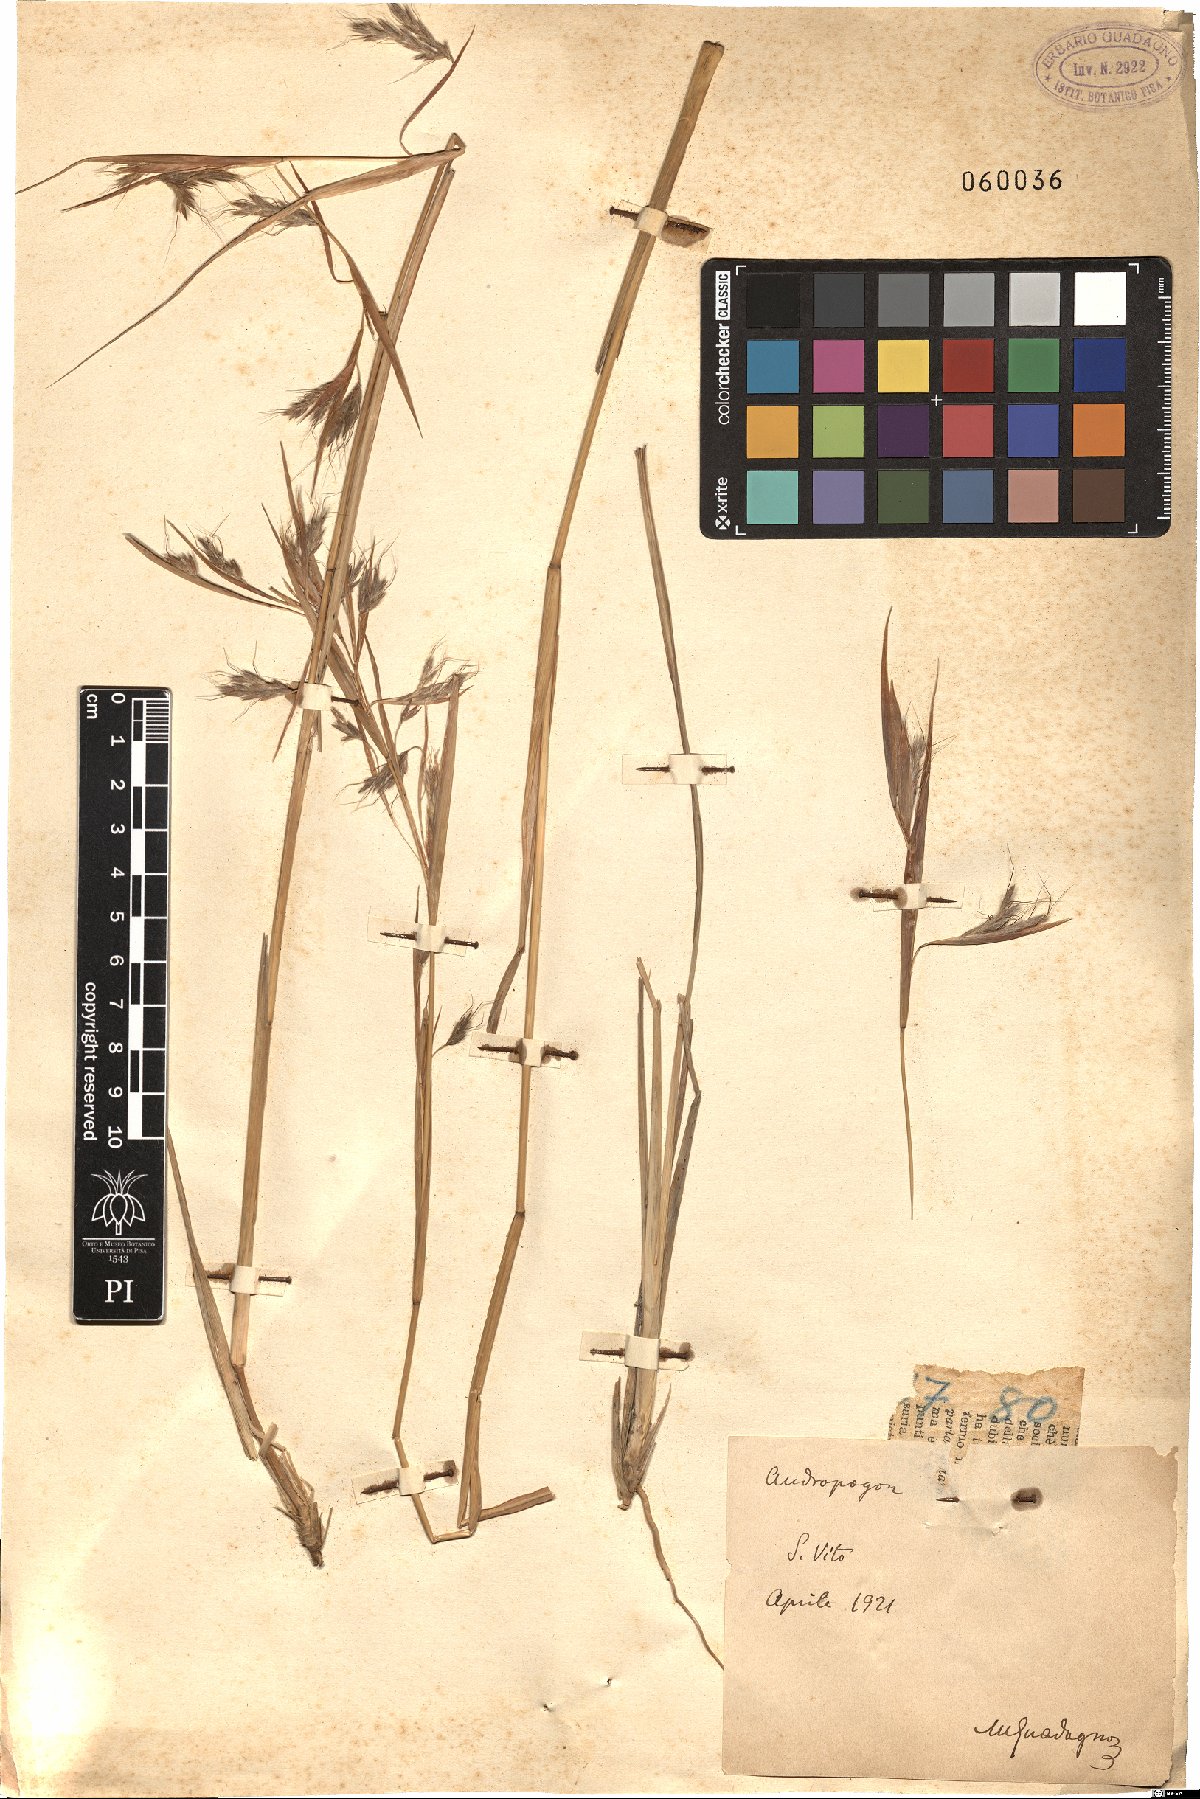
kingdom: Plantae
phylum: Tracheophyta
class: Liliopsida
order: Poales
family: Poaceae
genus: Andropogon
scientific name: Andropogon
